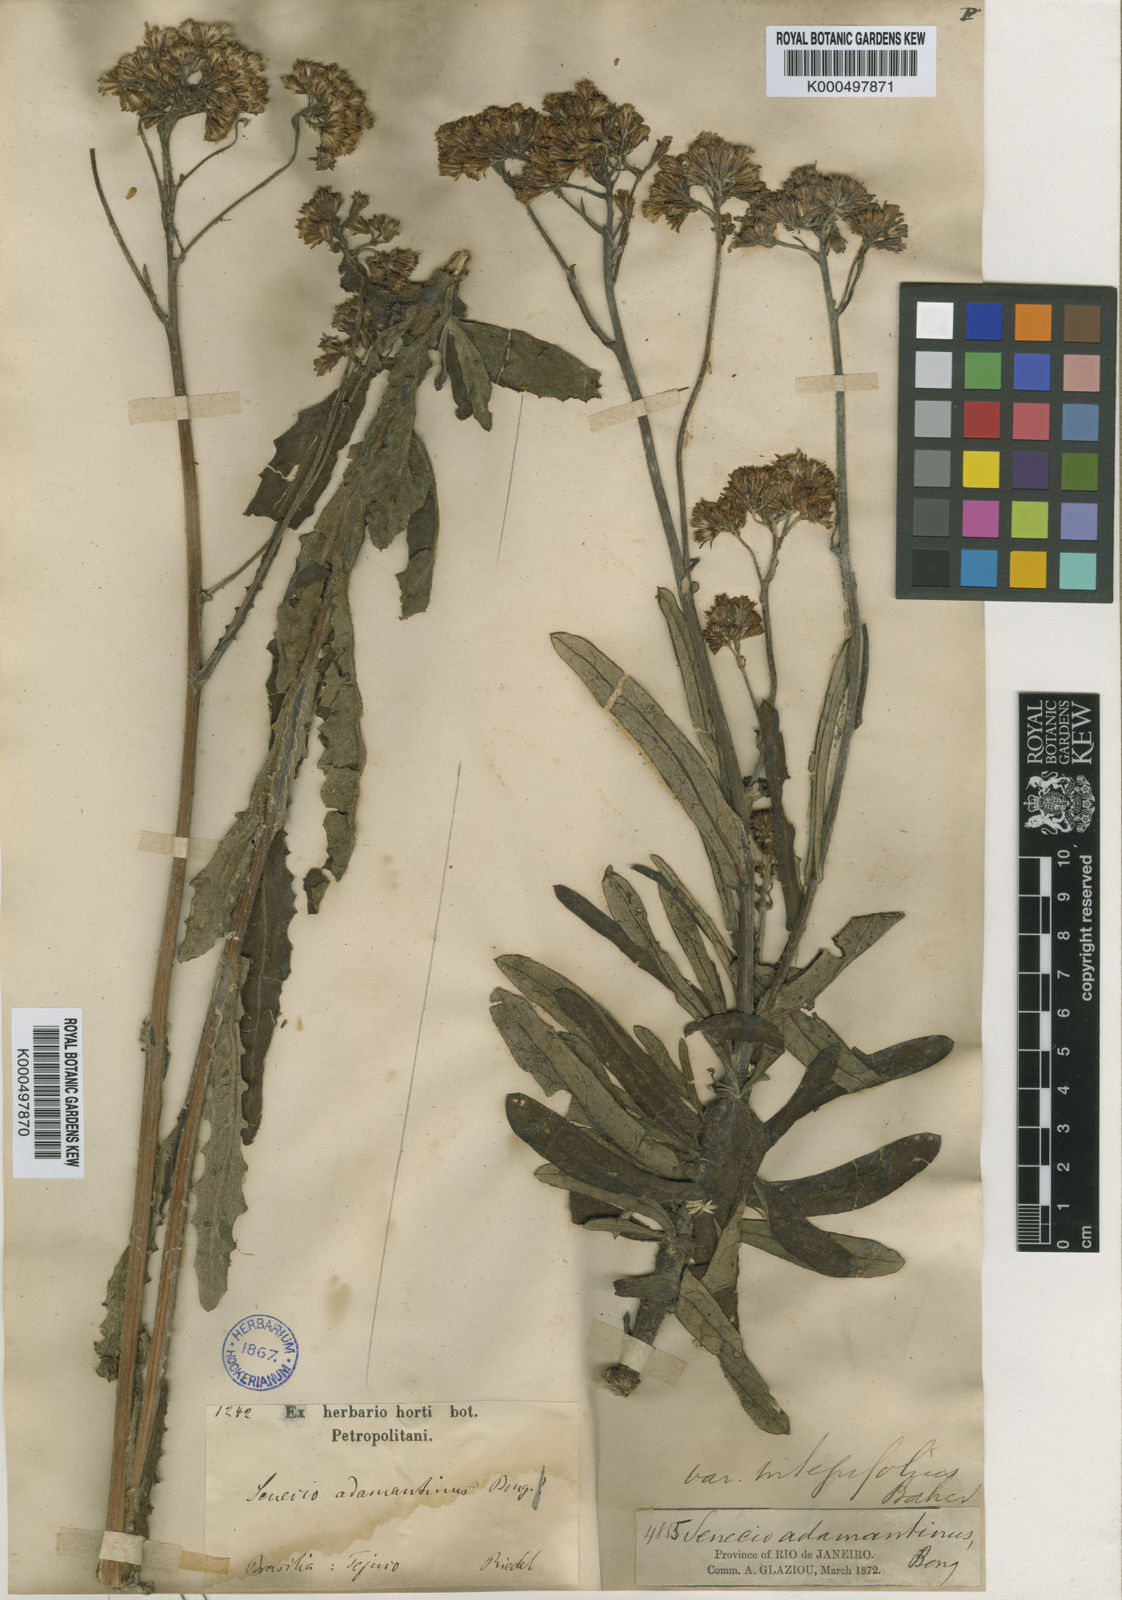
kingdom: Plantae
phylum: Tracheophyta
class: Magnoliopsida
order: Asterales
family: Asteraceae
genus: Senecio
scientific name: Senecio
